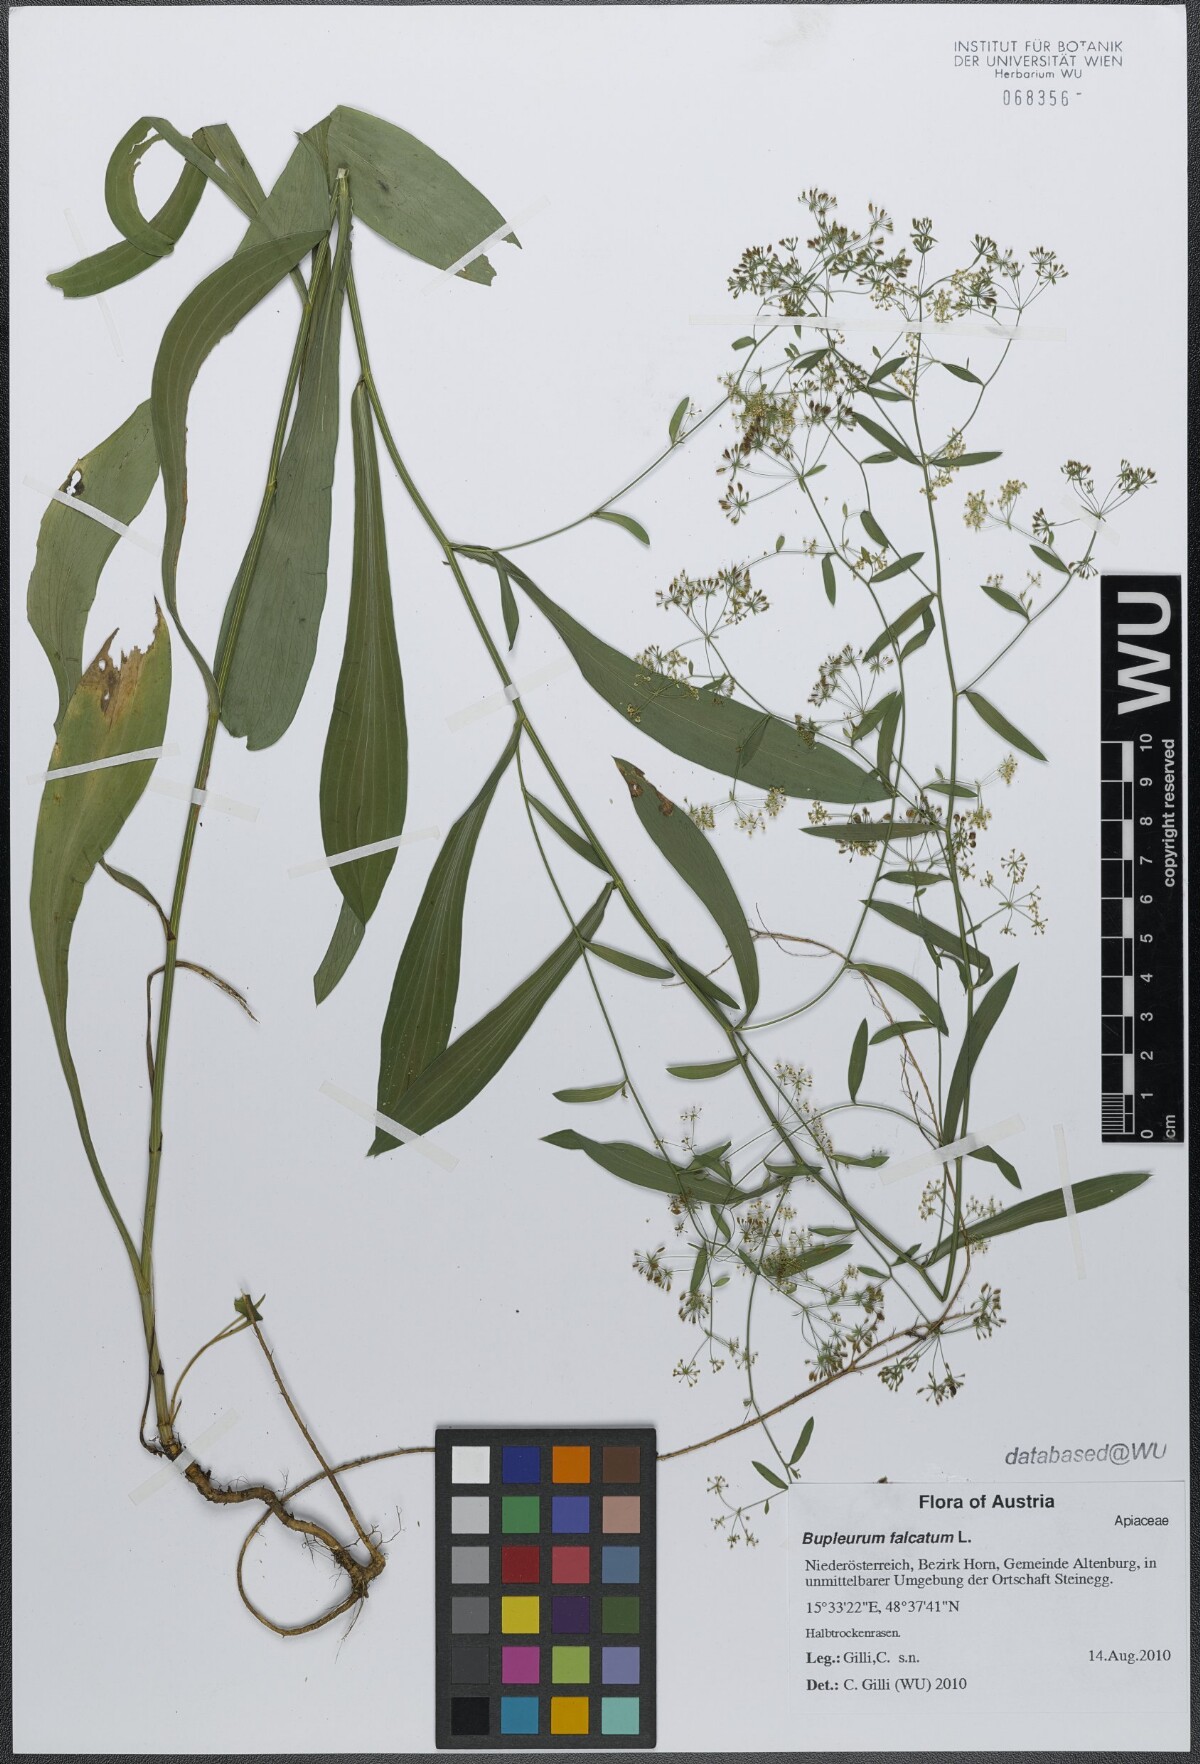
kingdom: Plantae
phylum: Tracheophyta
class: Magnoliopsida
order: Apiales
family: Apiaceae
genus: Bupleurum
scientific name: Bupleurum falcatum
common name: Sickle-leaved hare's-ear
